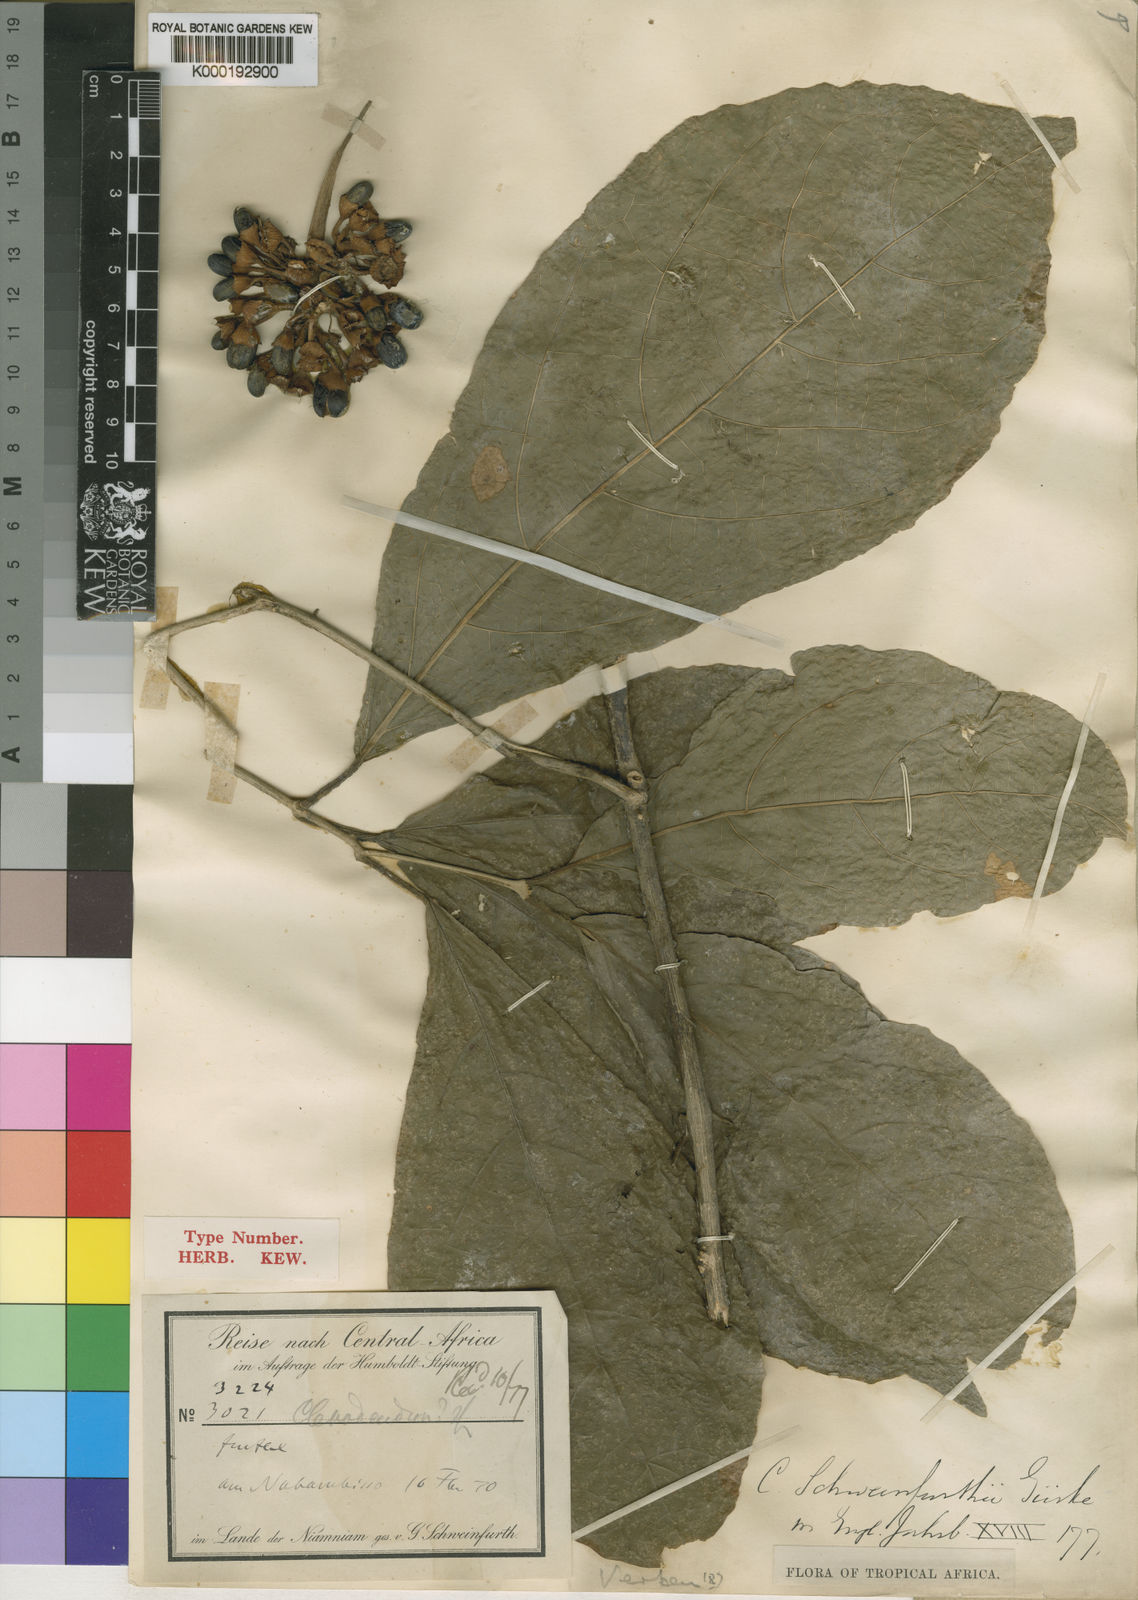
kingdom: Plantae
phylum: Tracheophyta
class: Magnoliopsida
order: Lamiales
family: Lamiaceae
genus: Clerodendrum
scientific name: Clerodendrum
